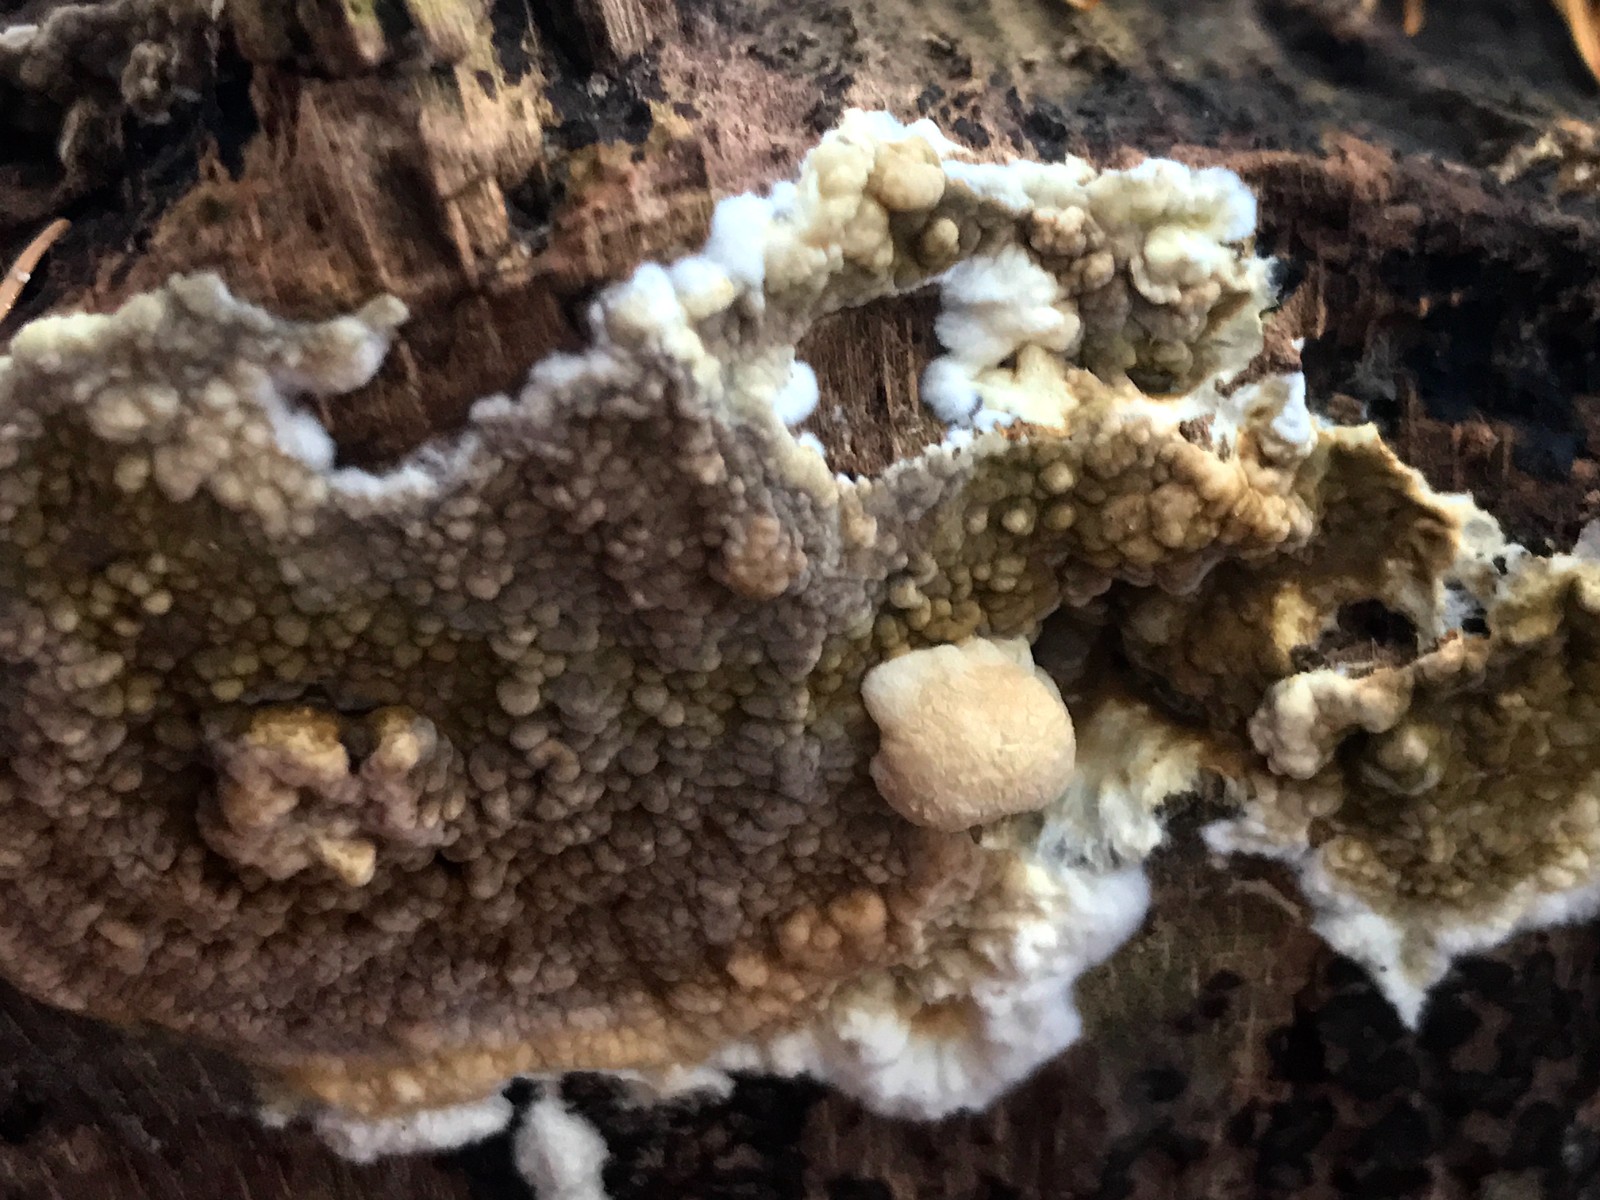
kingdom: Fungi
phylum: Basidiomycota
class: Agaricomycetes
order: Boletales
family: Coniophoraceae
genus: Coniophora
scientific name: Coniophora puteana
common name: gul tømmersvamp
